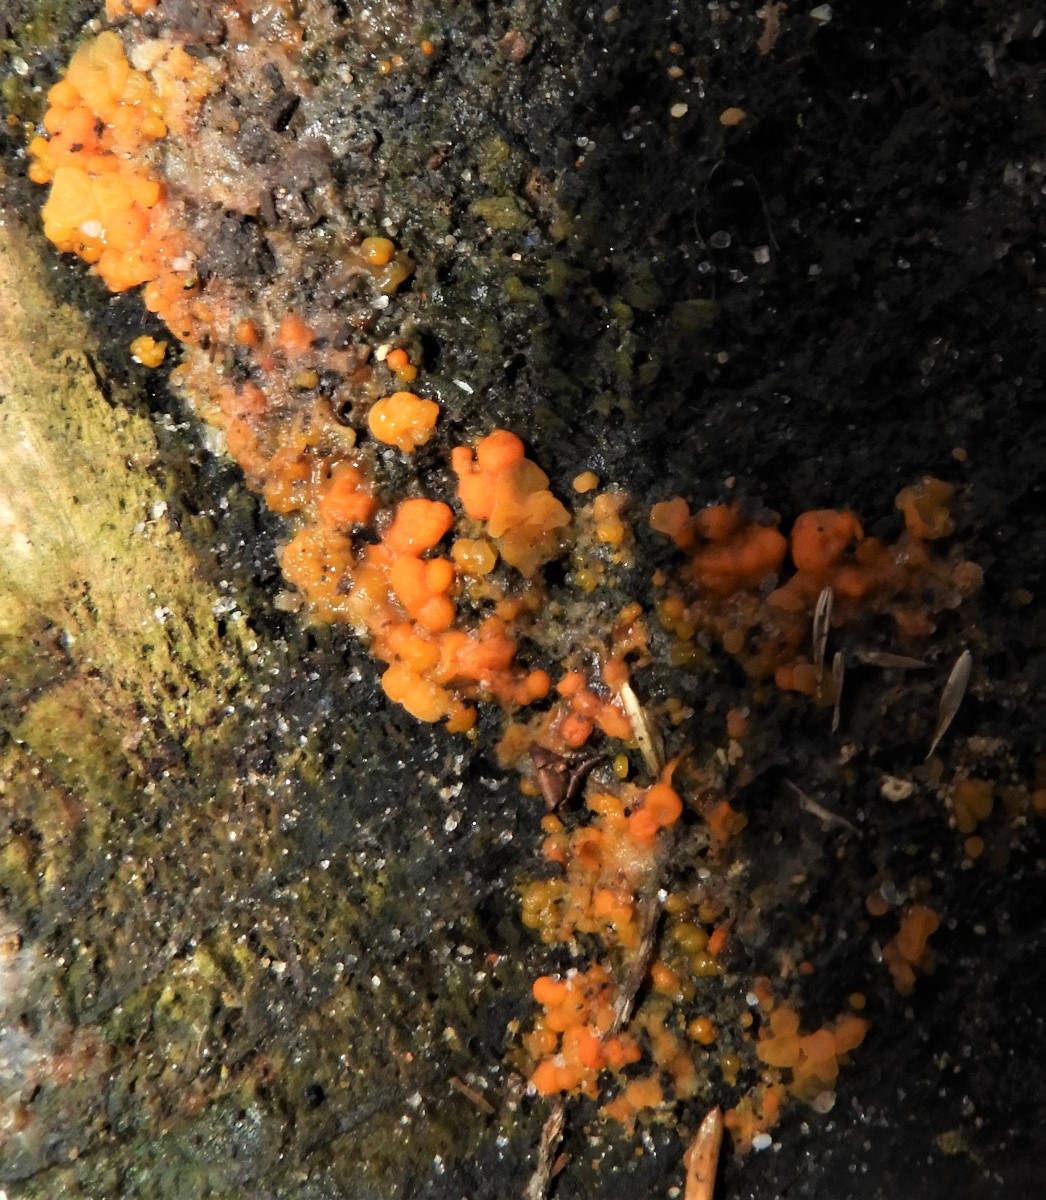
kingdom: Fungi
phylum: Basidiomycota
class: Dacrymycetes
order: Dacrymycetales
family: Dacrymycetaceae
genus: Dacrymyces
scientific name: Dacrymyces stillatus
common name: almindelig tåresvamp
